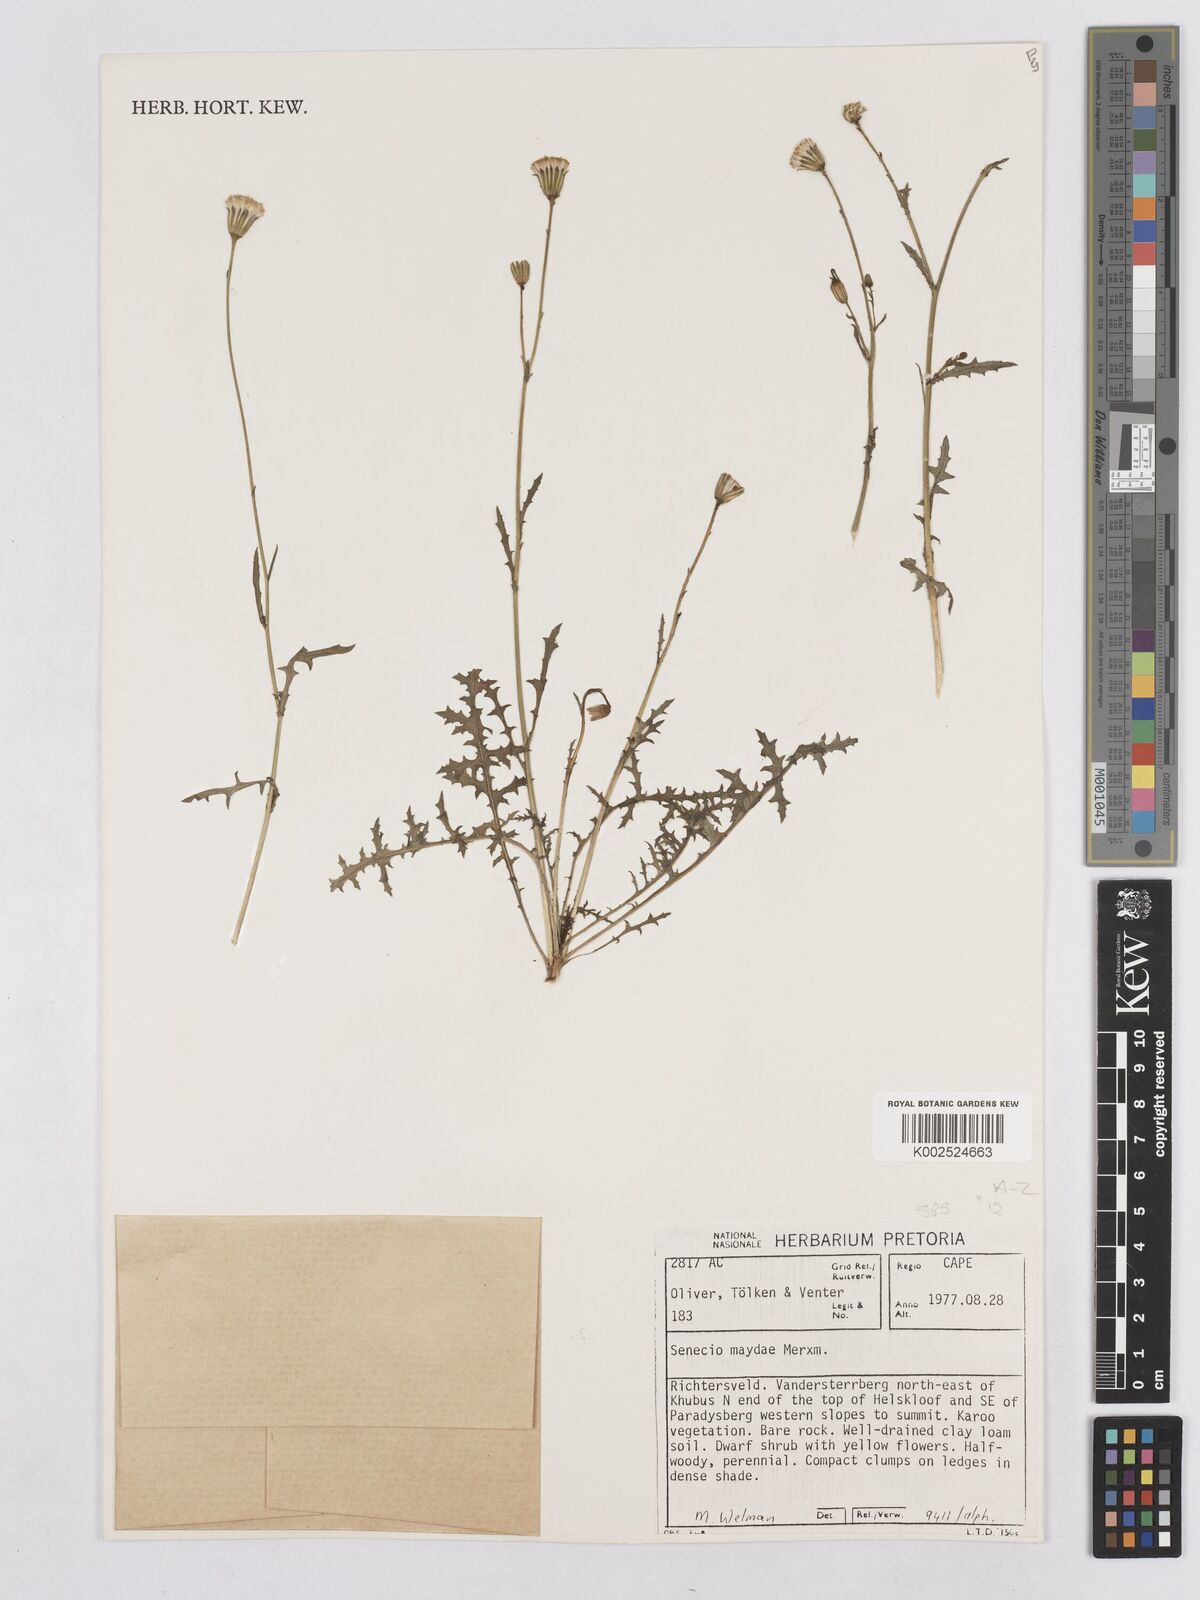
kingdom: Plantae
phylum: Tracheophyta
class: Magnoliopsida
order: Asterales
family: Asteraceae
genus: Senecio
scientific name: Senecio maydae
